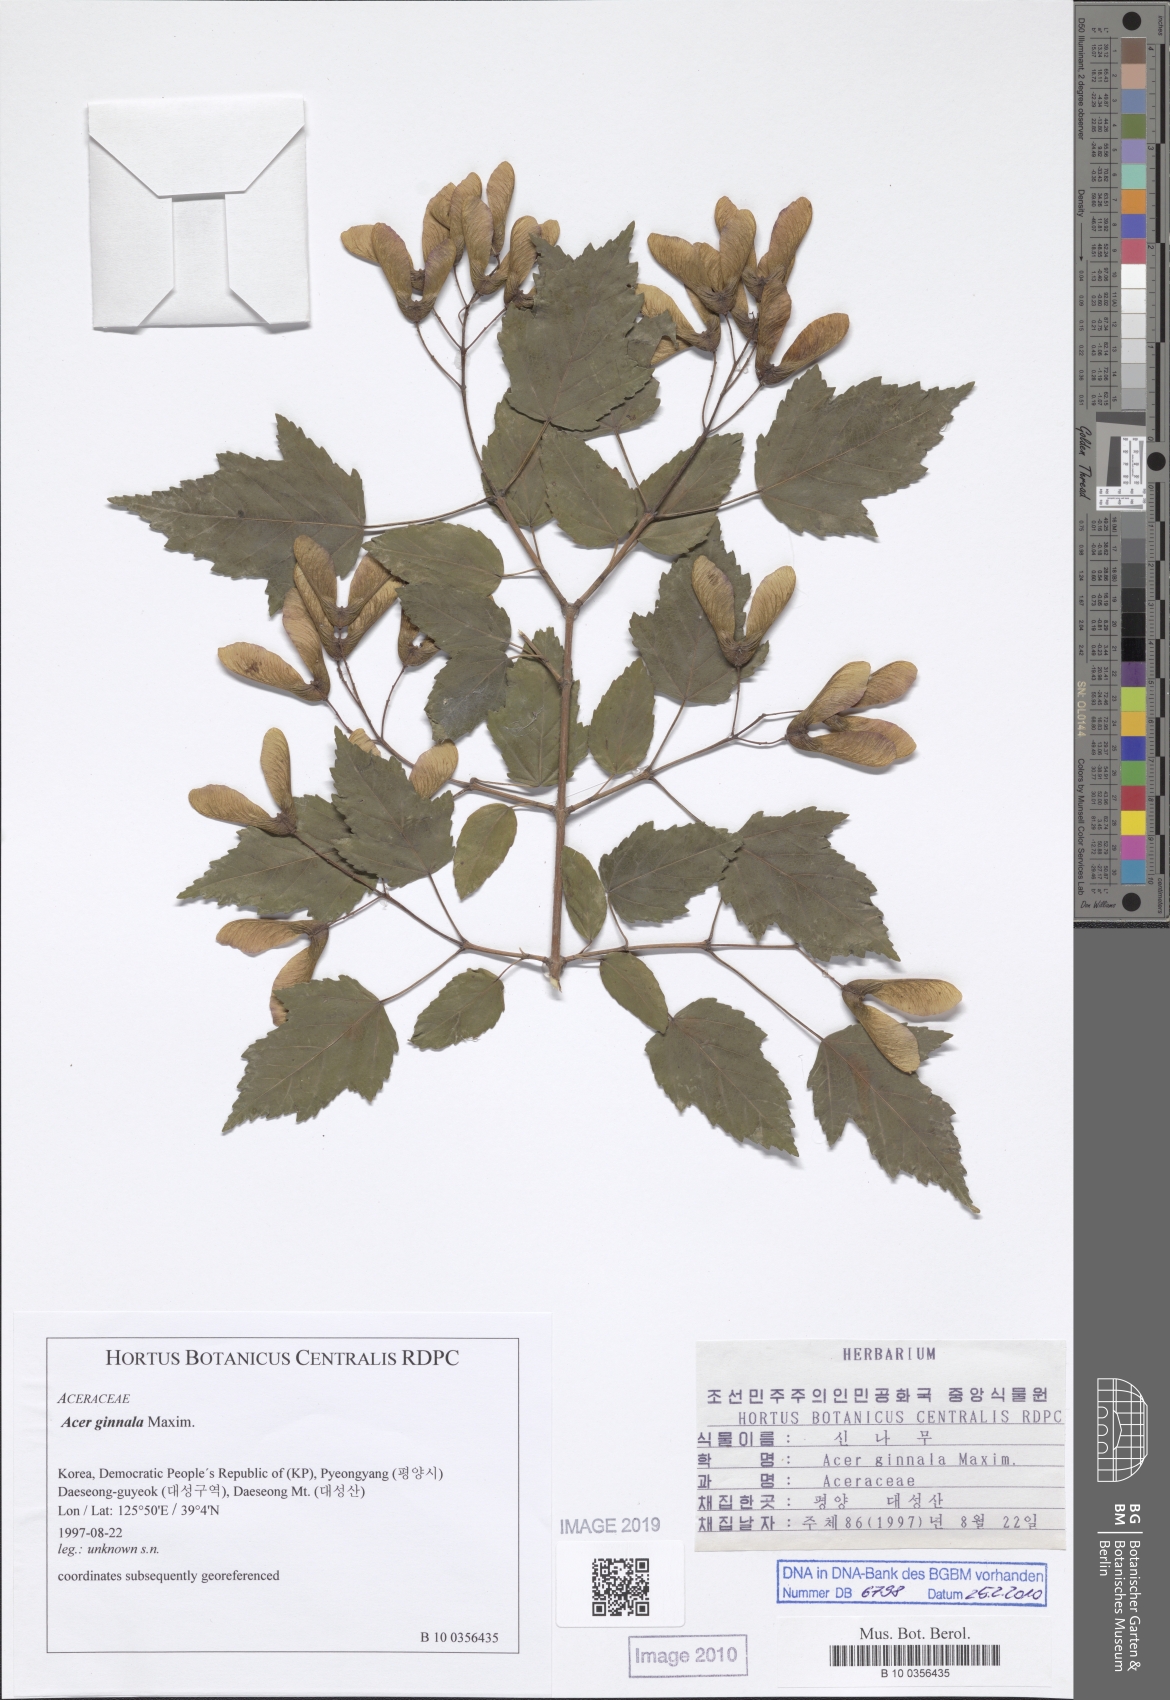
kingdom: Plantae
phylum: Tracheophyta
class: Magnoliopsida
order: Sapindales
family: Sapindaceae
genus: Acer
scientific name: Acer tataricum
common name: Tartar maple
